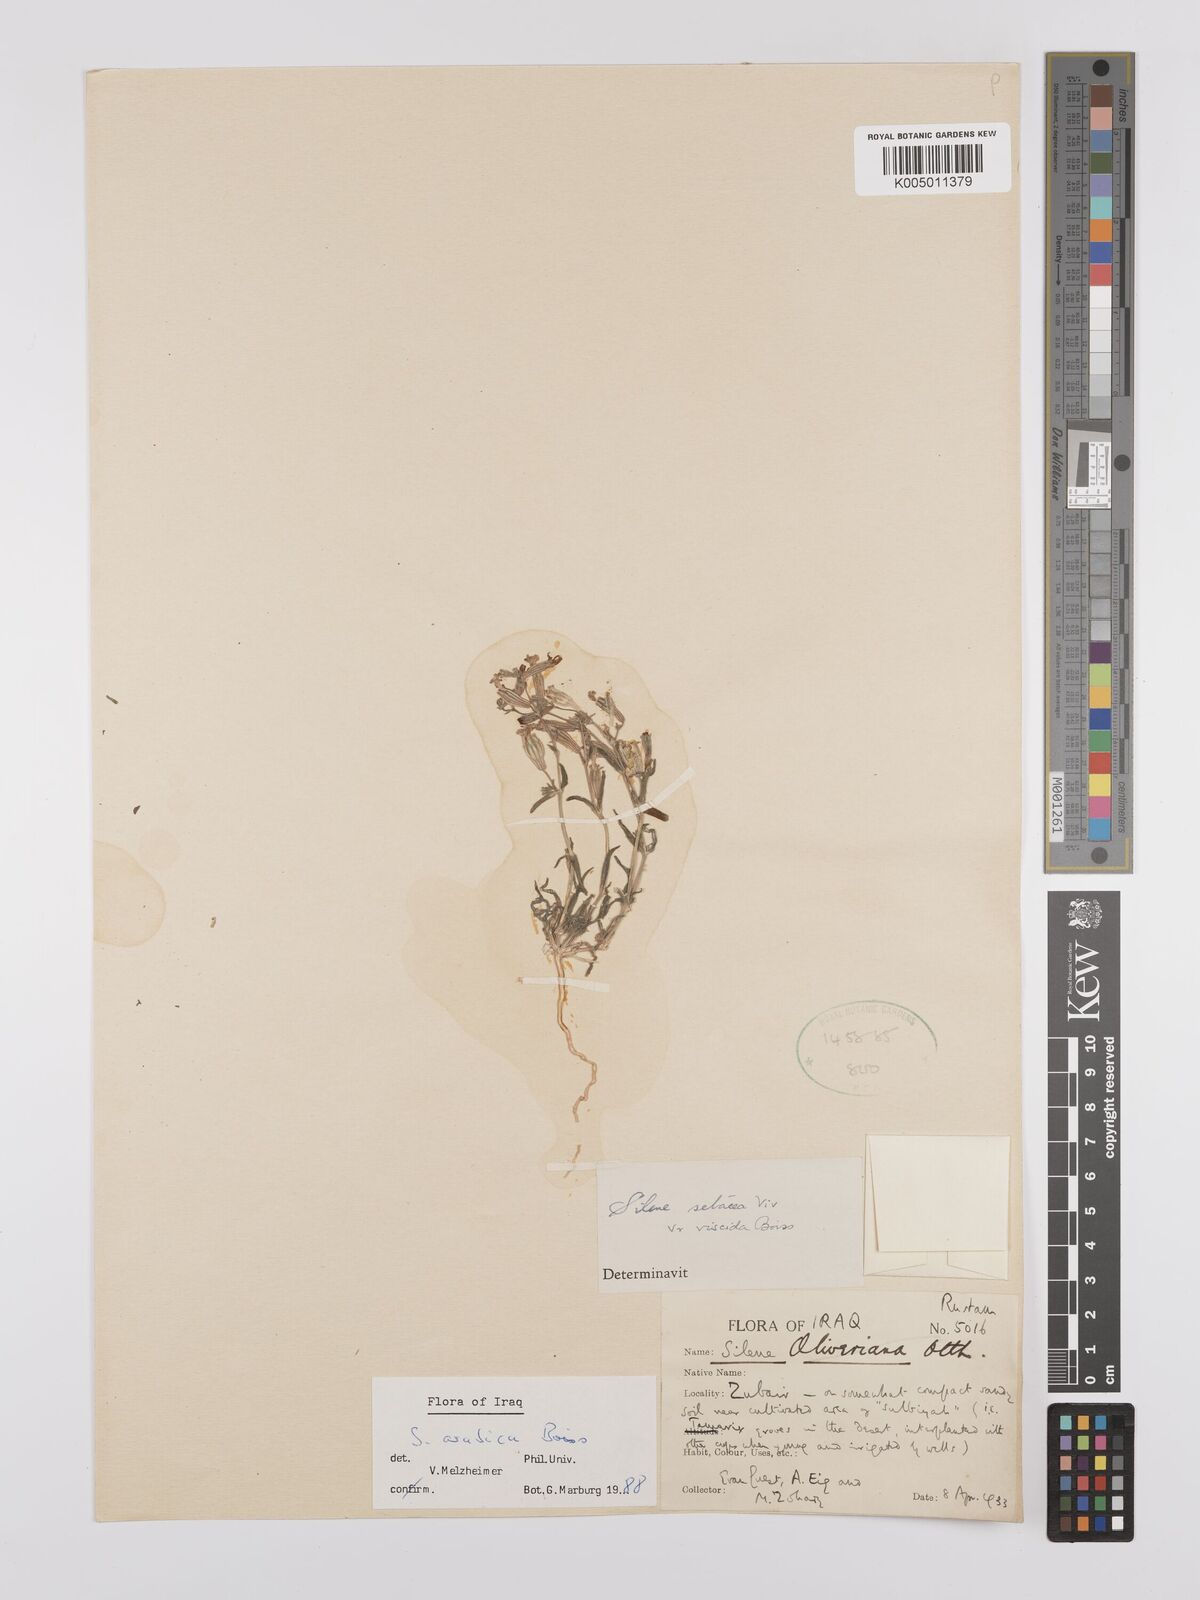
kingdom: Plantae
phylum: Tracheophyta
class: Magnoliopsida
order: Caryophyllales
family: Caryophyllaceae
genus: Silene
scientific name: Silene arabica
